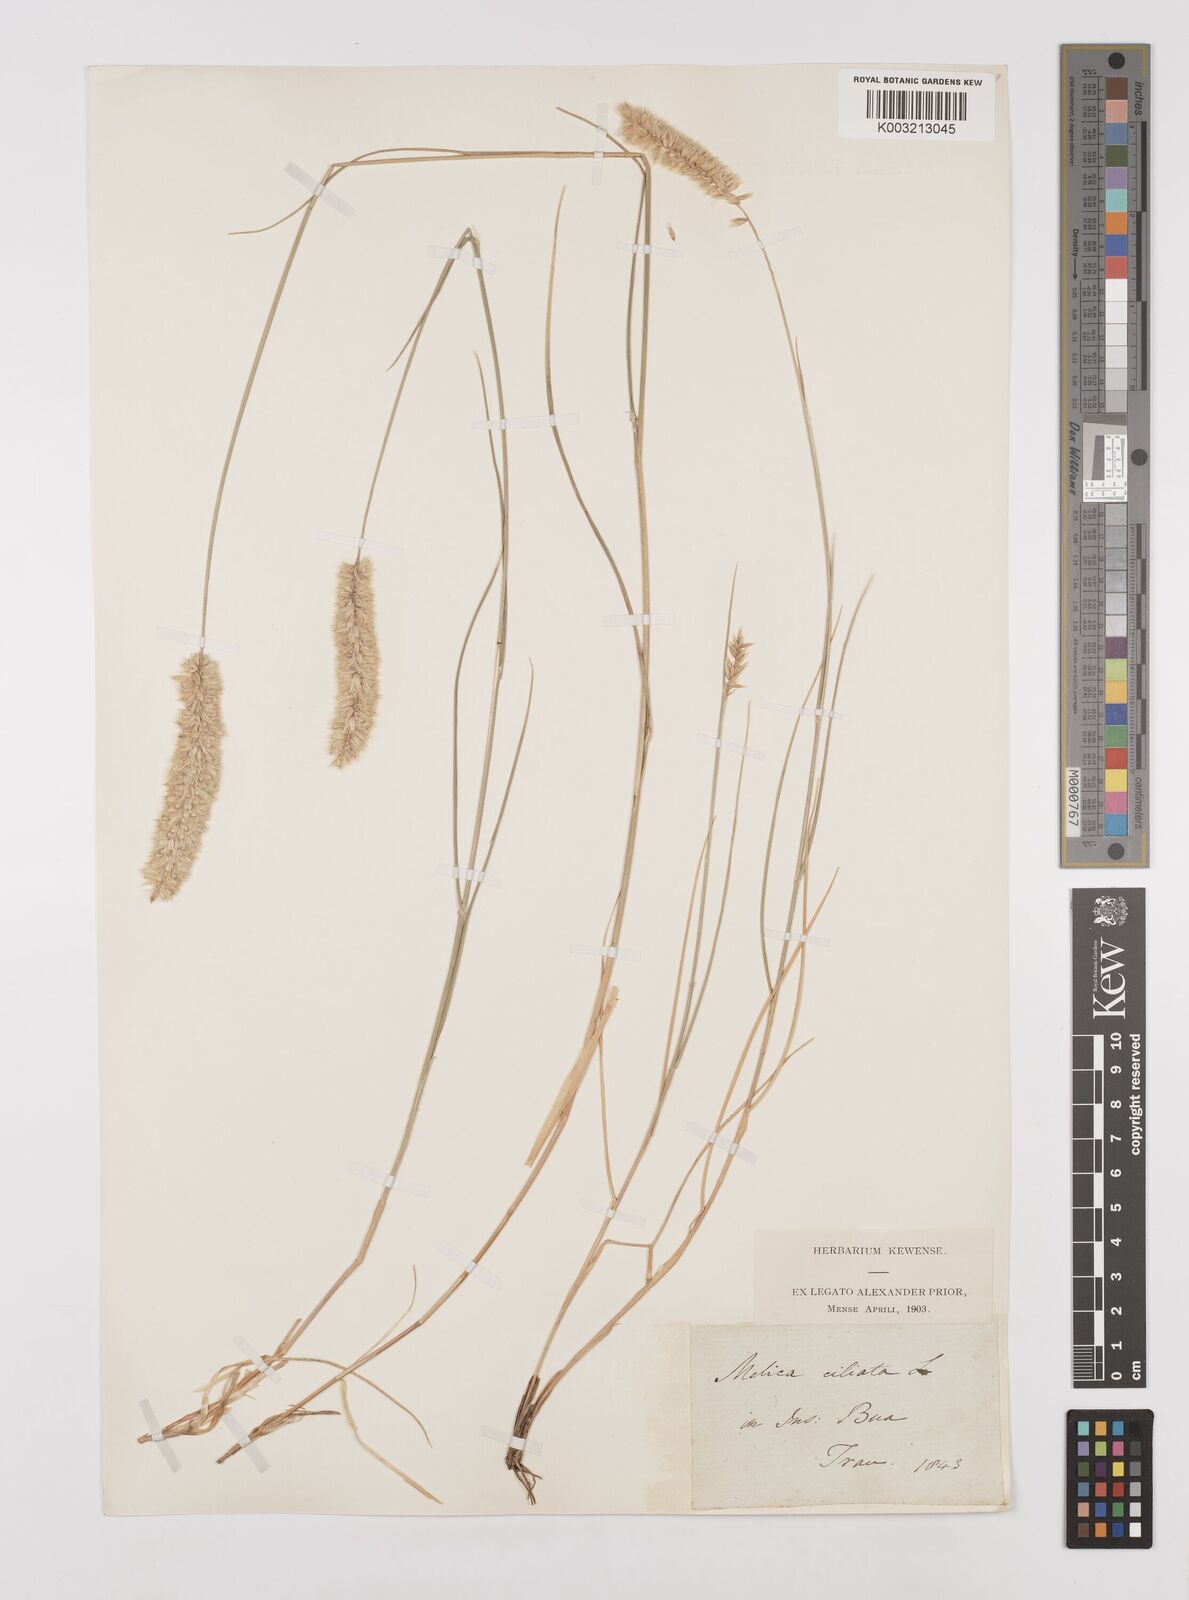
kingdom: Plantae
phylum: Tracheophyta
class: Liliopsida
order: Poales
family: Poaceae
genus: Melica
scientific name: Melica ciliata
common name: Hairy melicgrass
